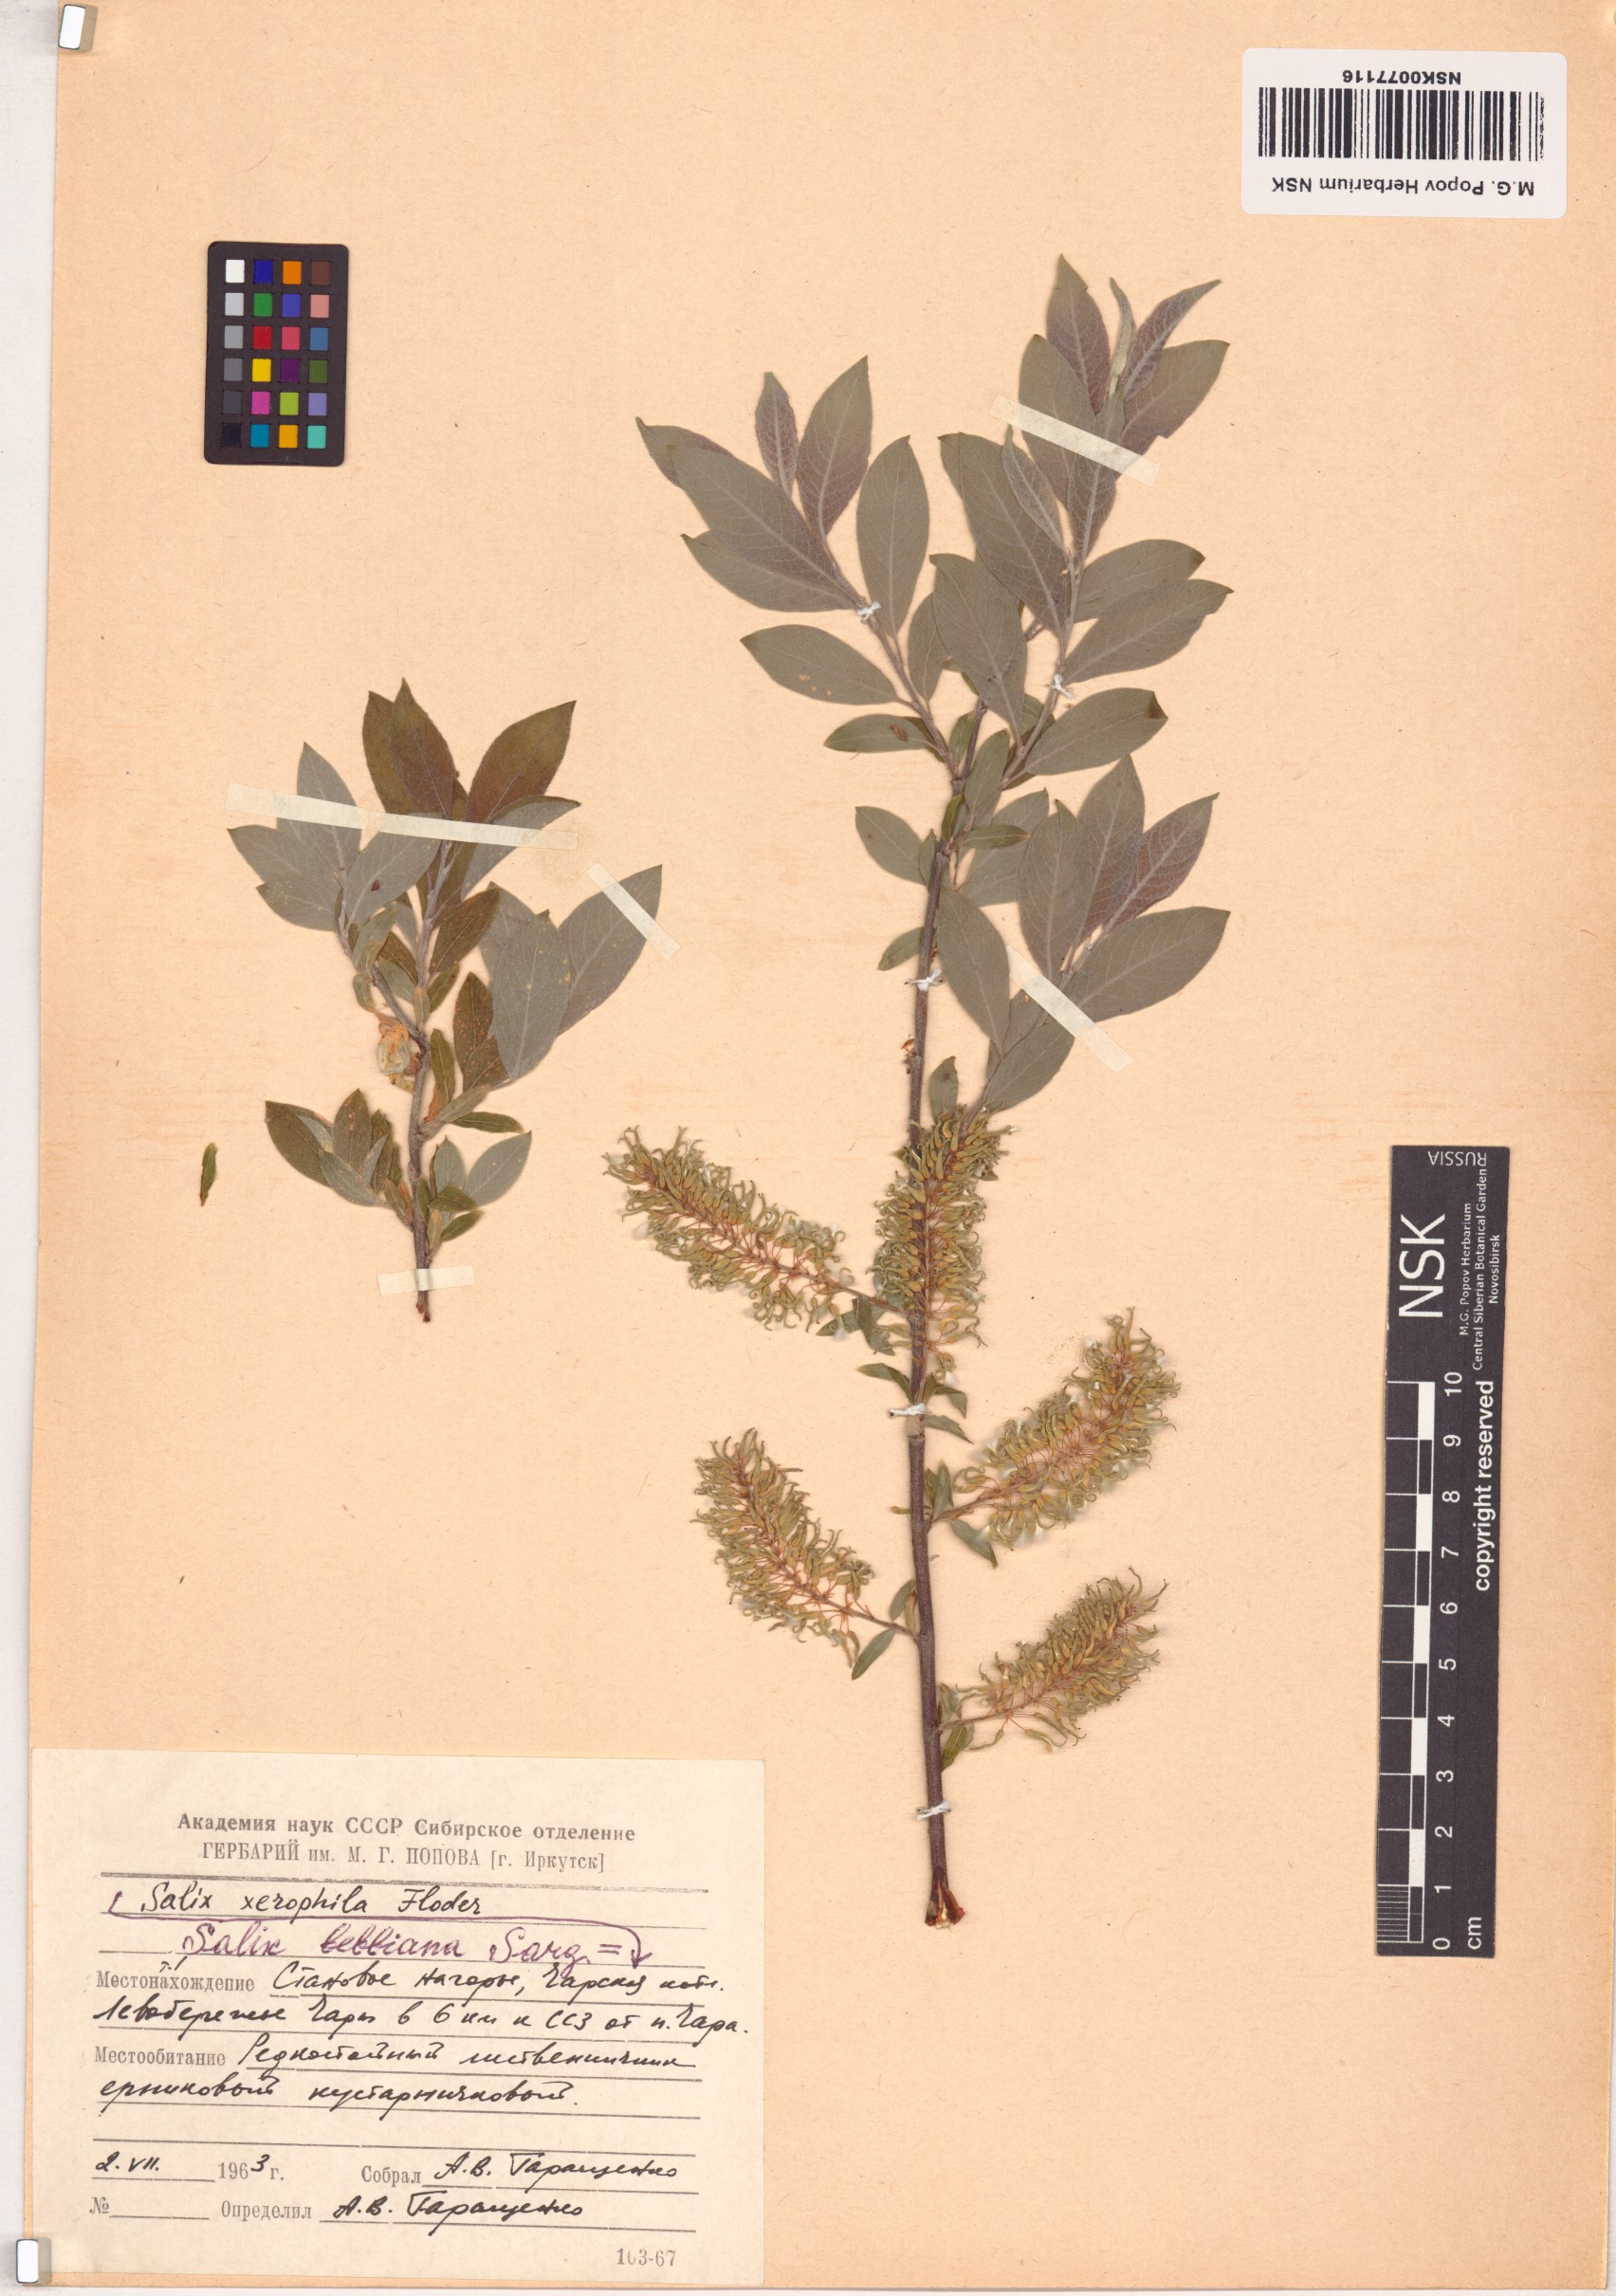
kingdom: Plantae
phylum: Tracheophyta
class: Magnoliopsida
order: Malpighiales
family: Salicaceae
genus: Salix
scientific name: Salix bebbiana
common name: Bebb's willow
